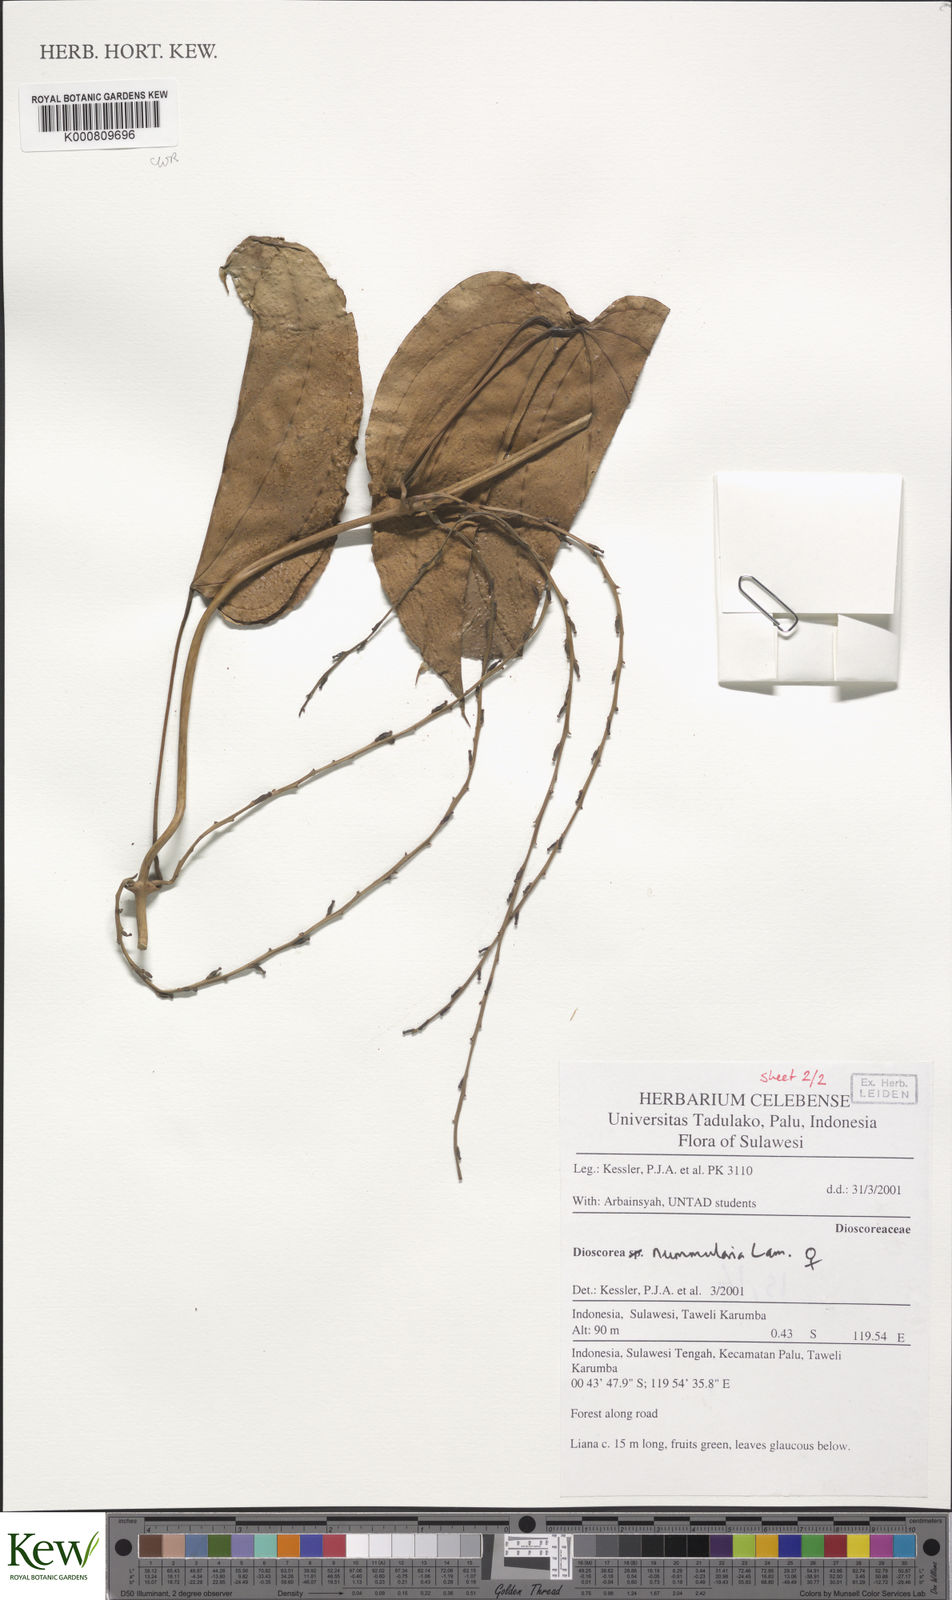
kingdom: Plantae
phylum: Tracheophyta
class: Liliopsida
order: Dioscoreales
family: Dioscoreaceae
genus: Dioscorea
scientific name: Dioscorea nummularia
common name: Pacific yam
